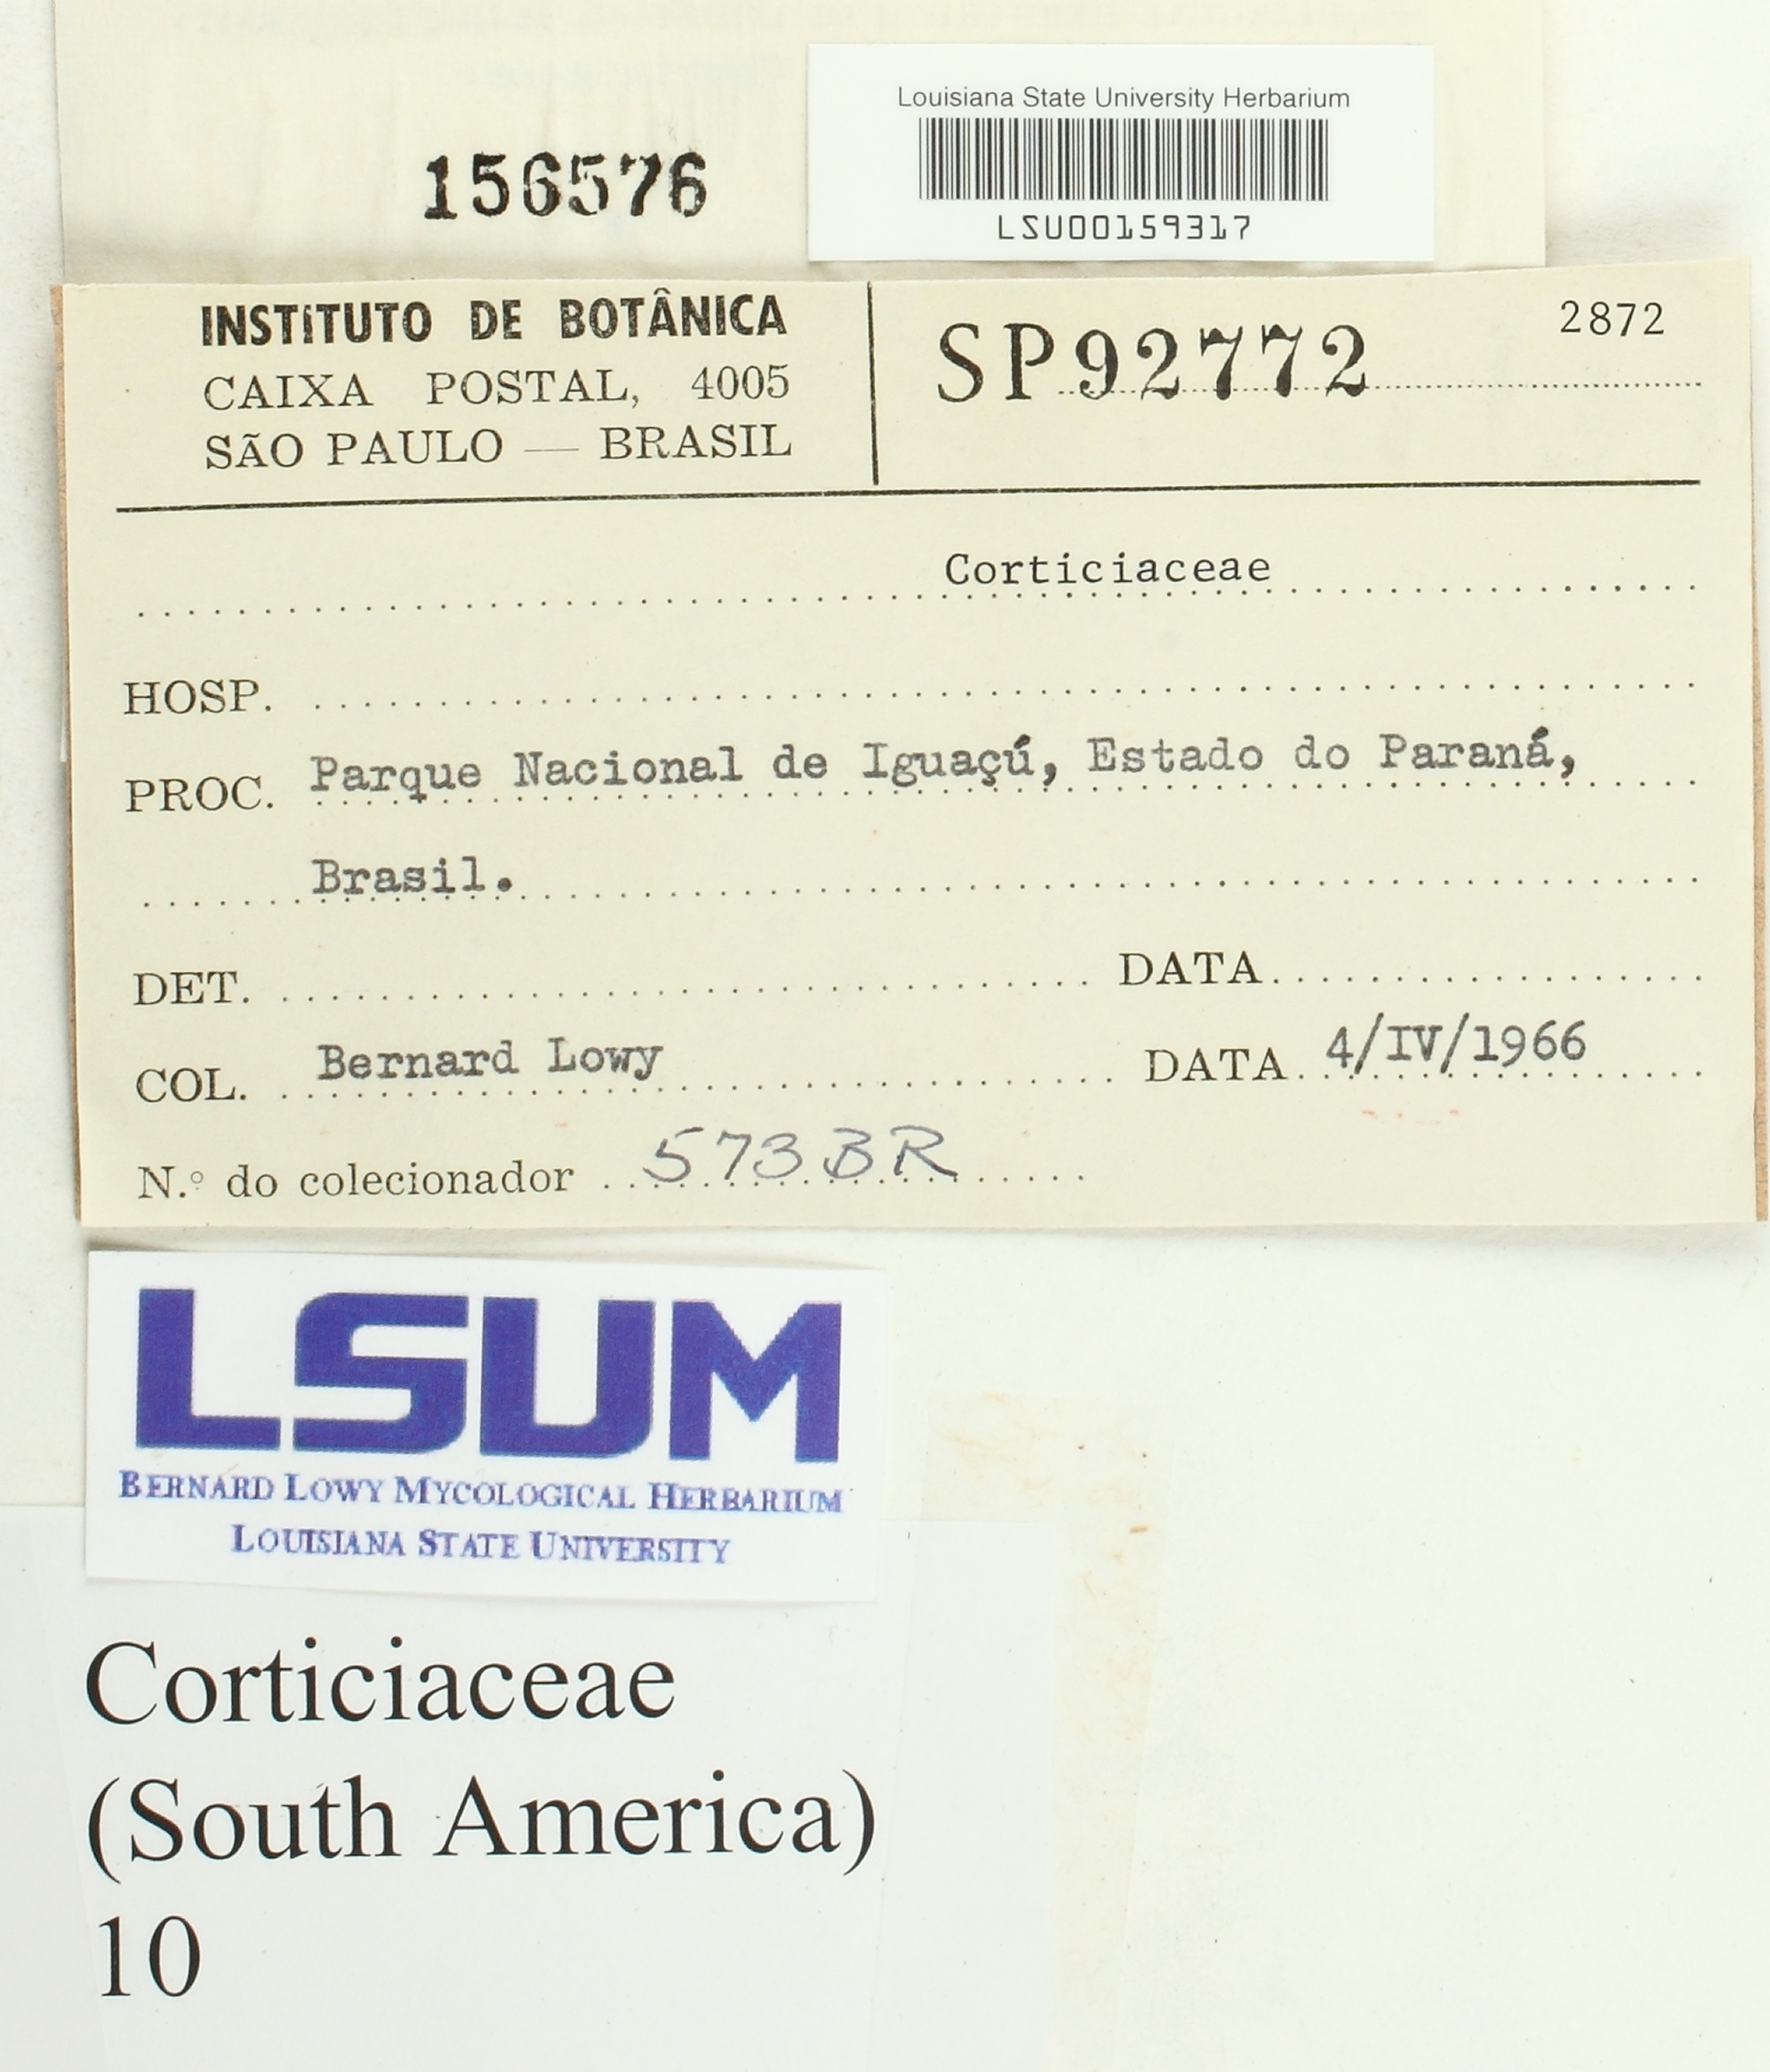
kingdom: Fungi
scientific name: Fungi
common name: Fungi
